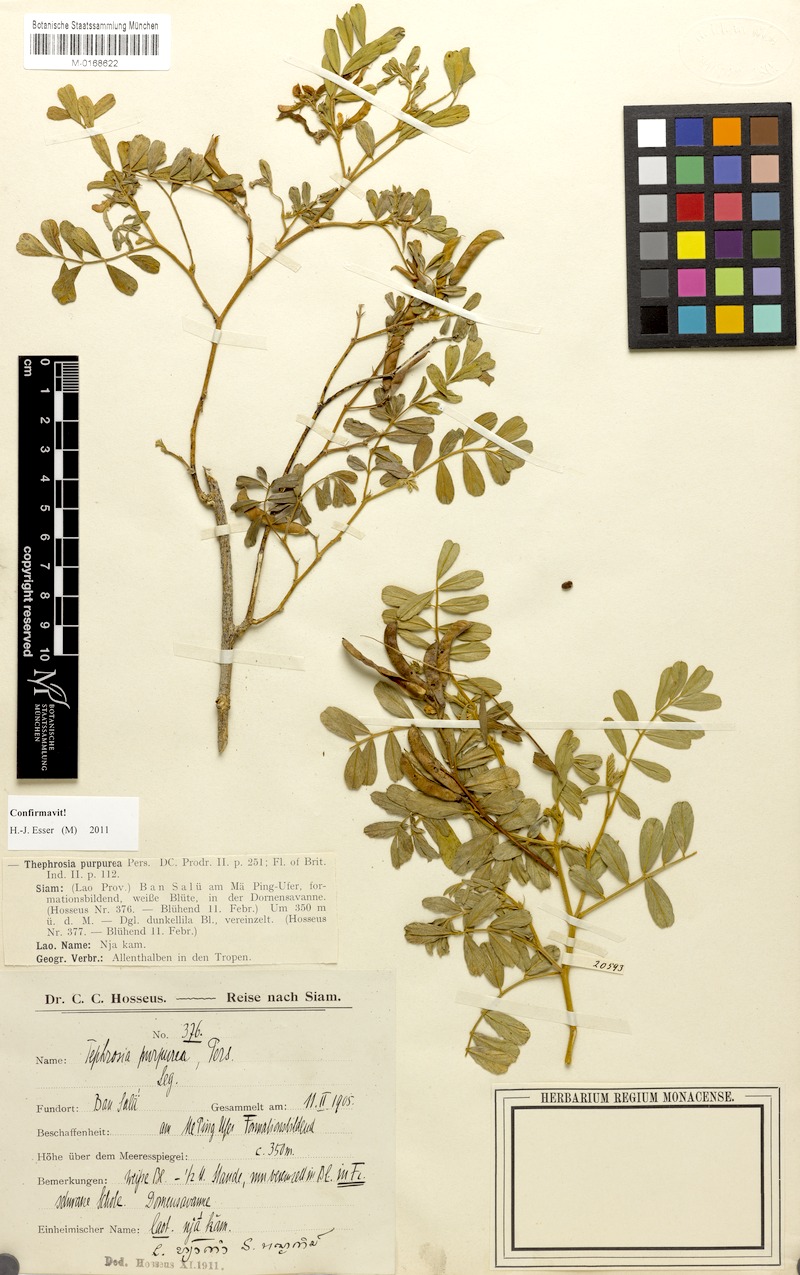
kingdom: Plantae
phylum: Tracheophyta
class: Magnoliopsida
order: Fabales
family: Fabaceae
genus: Tephrosia
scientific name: Tephrosia purpurea
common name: Fishpoison
